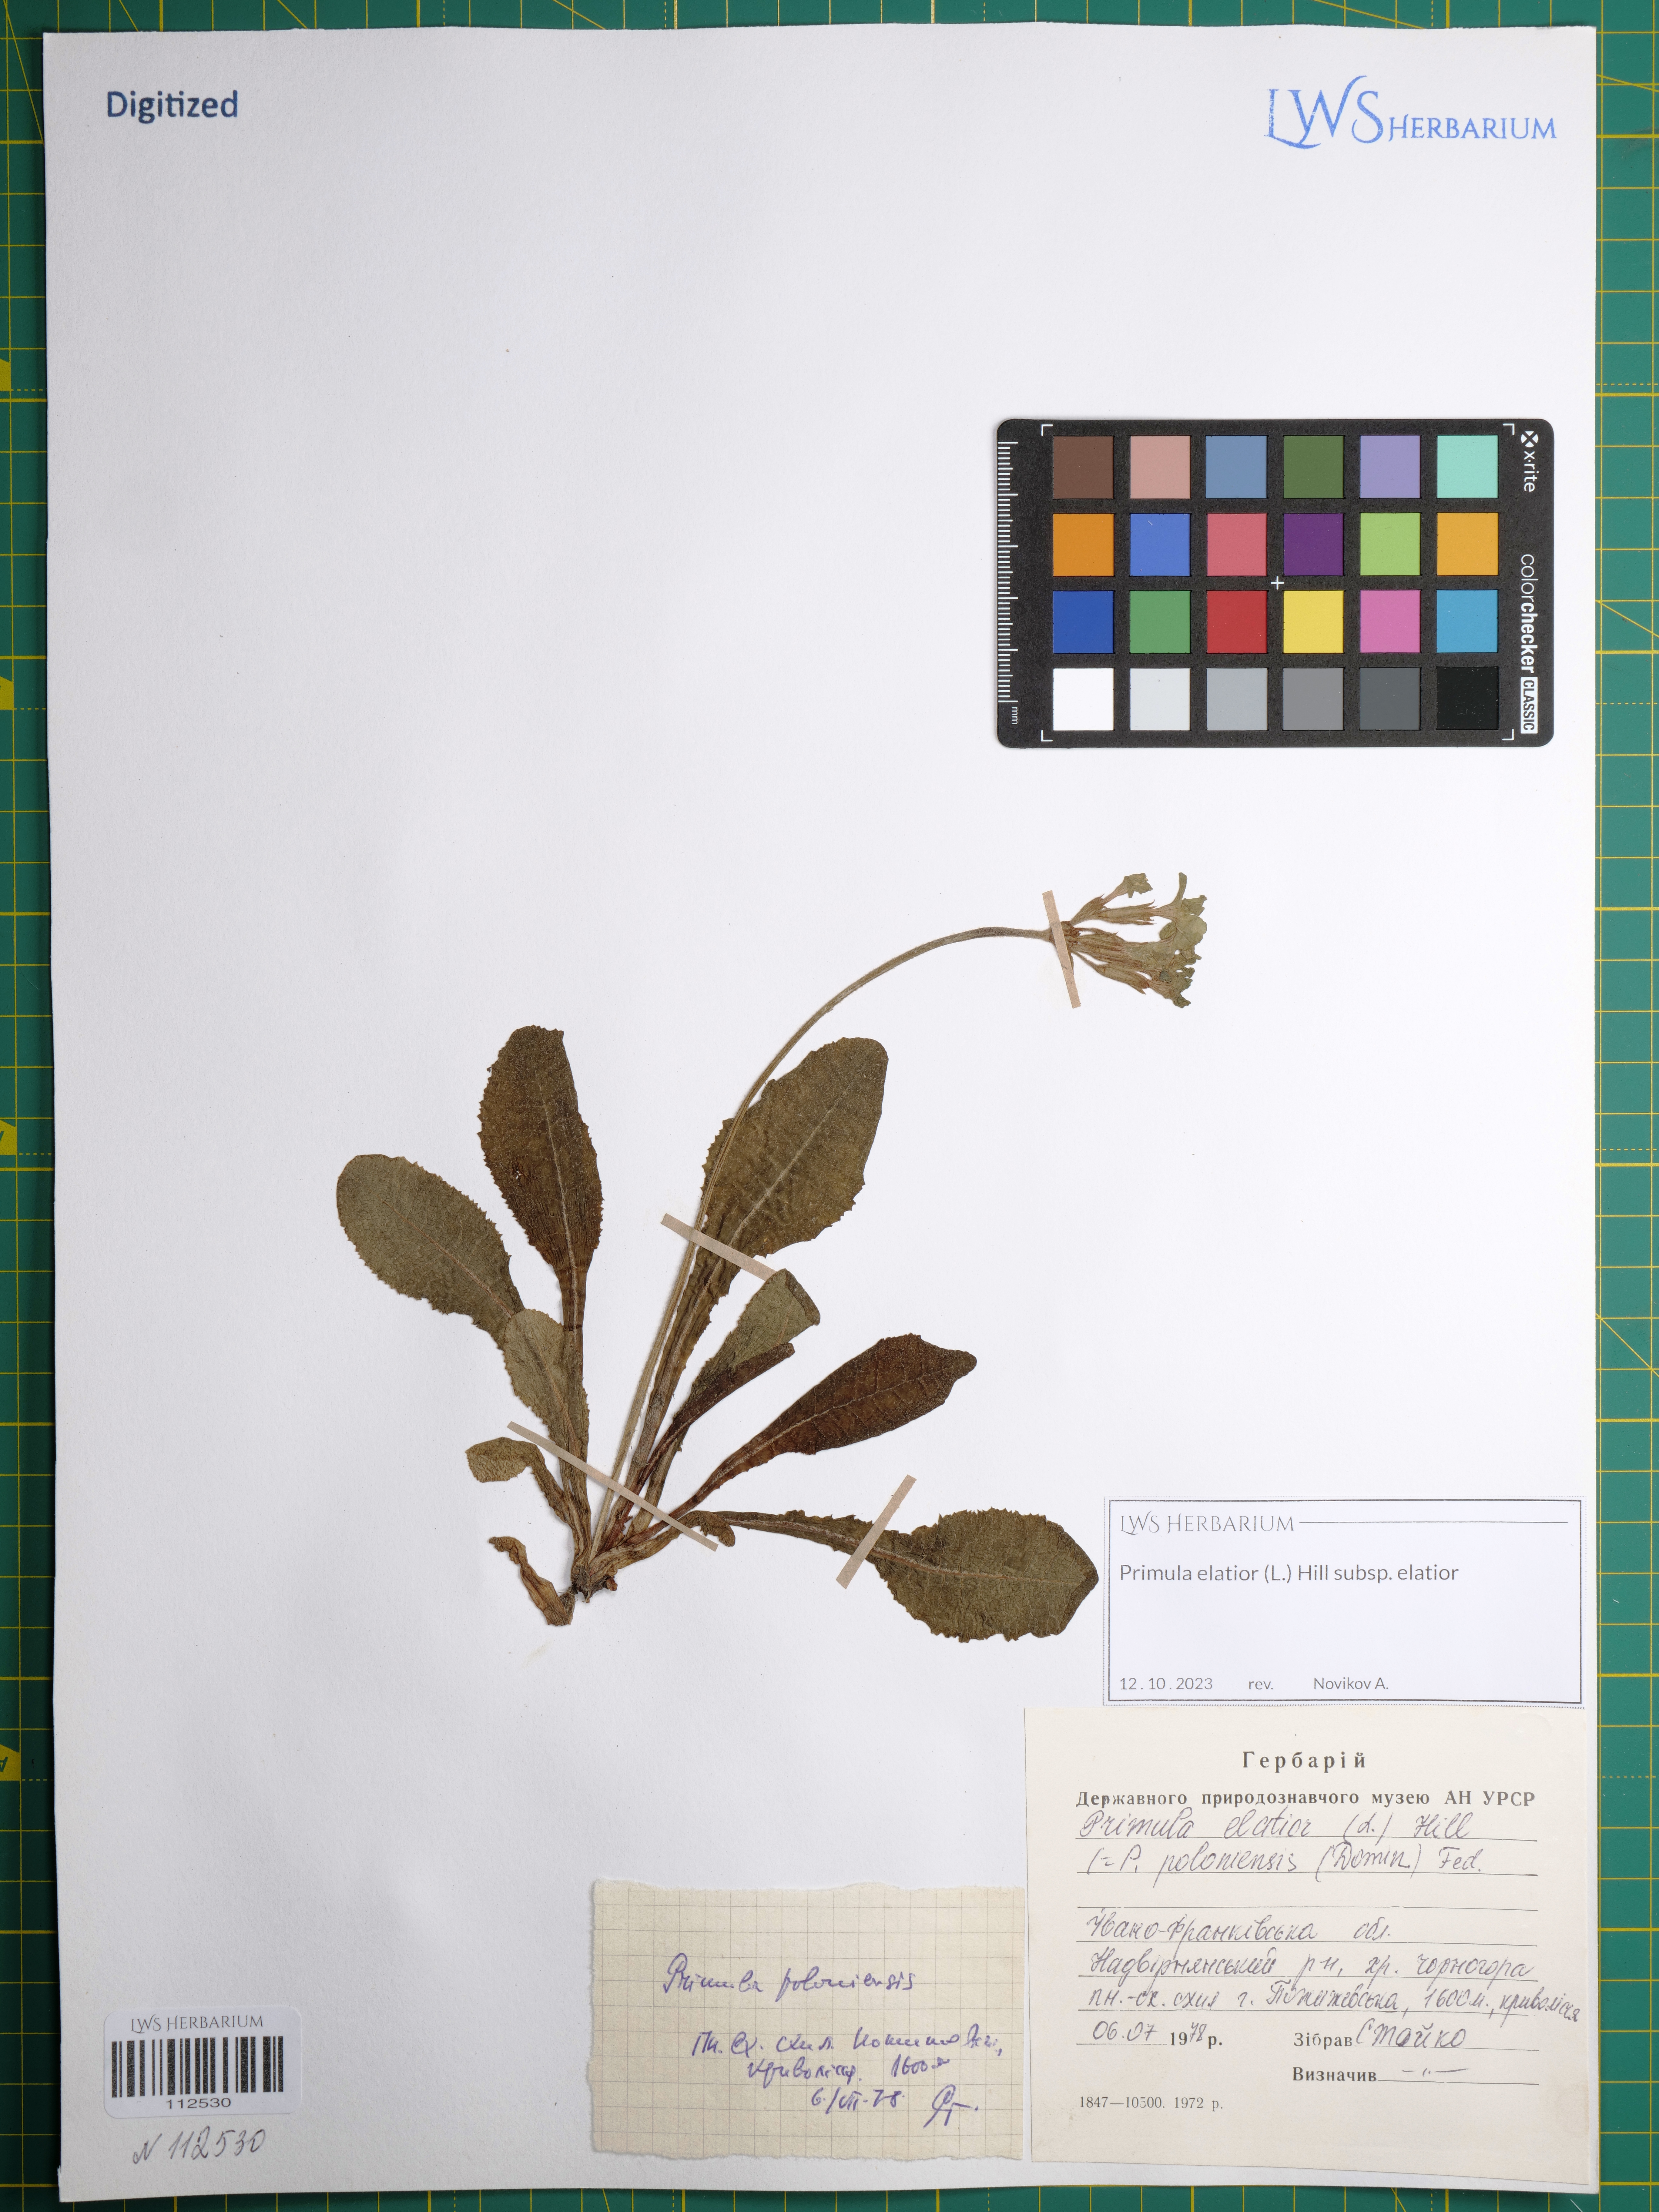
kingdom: Plantae
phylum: Tracheophyta
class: Magnoliopsida
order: Ericales
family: Primulaceae
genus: Primula
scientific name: Primula elatior
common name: Oxlip
